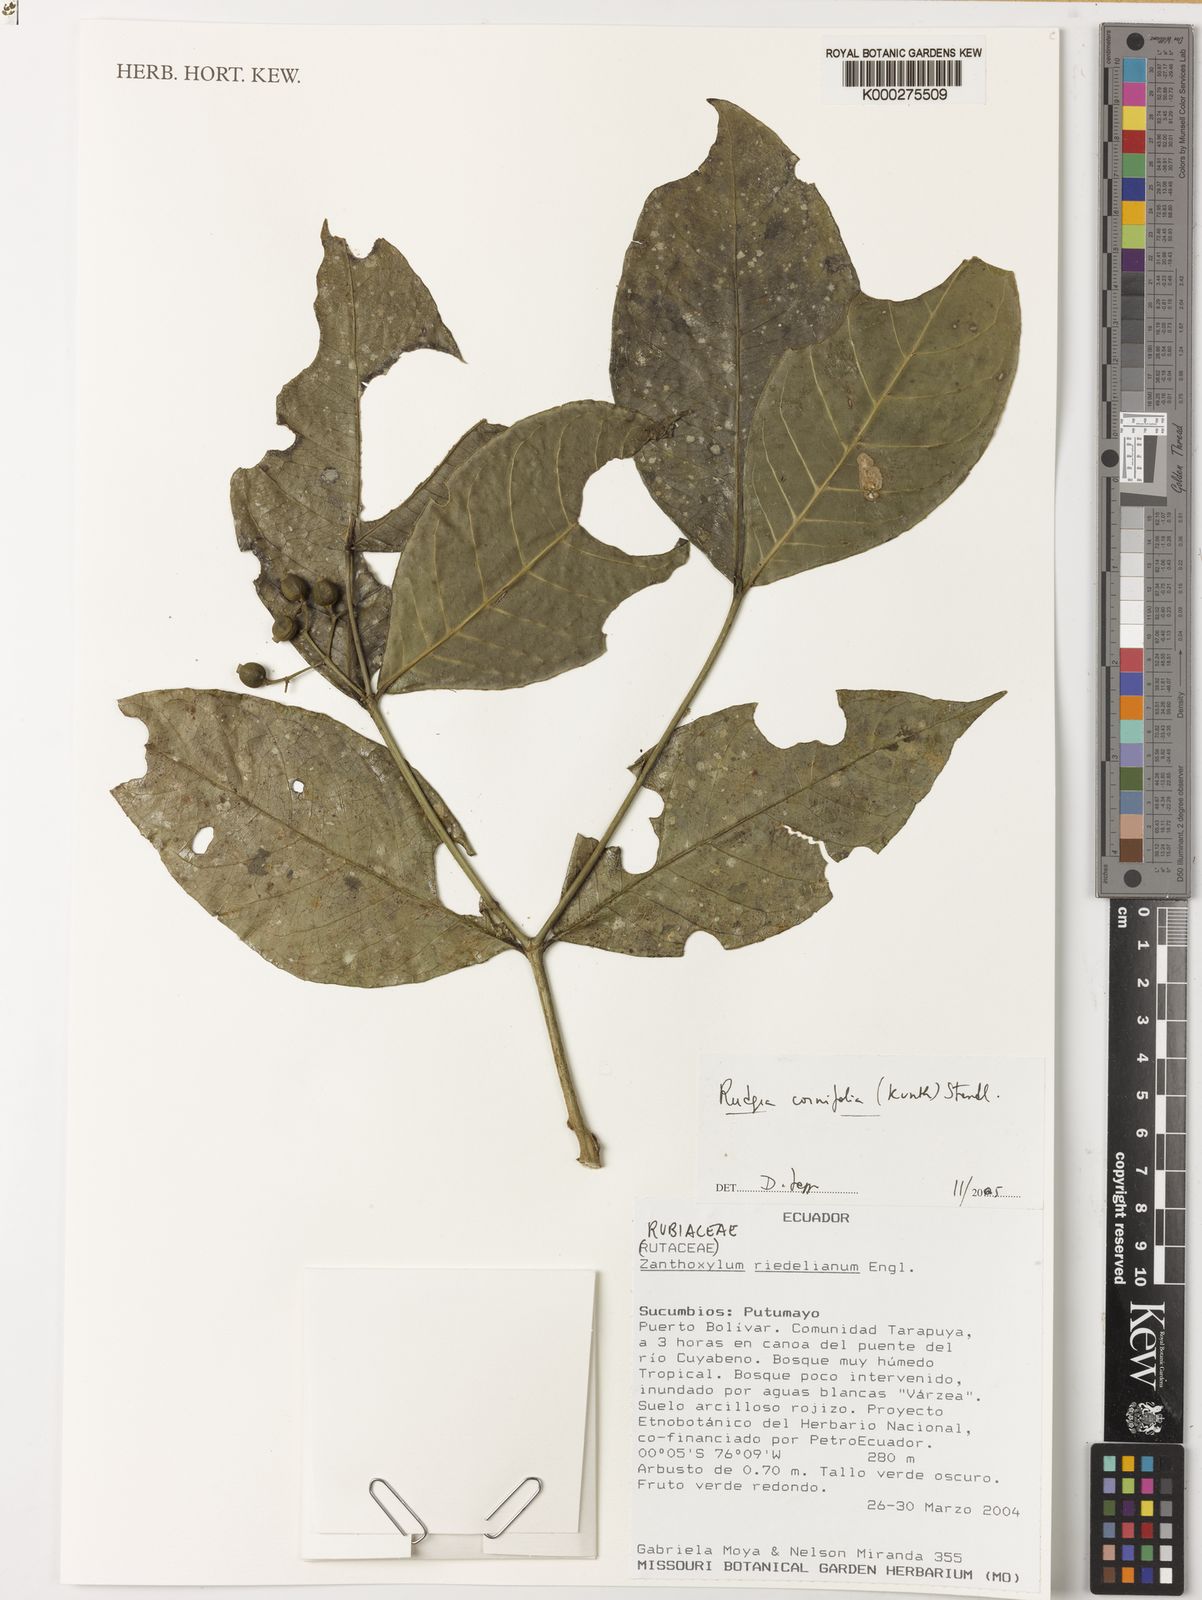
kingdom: Plantae
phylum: Tracheophyta
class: Magnoliopsida
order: Gentianales
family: Rubiaceae
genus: Rudgea
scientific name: Rudgea cornifolia
